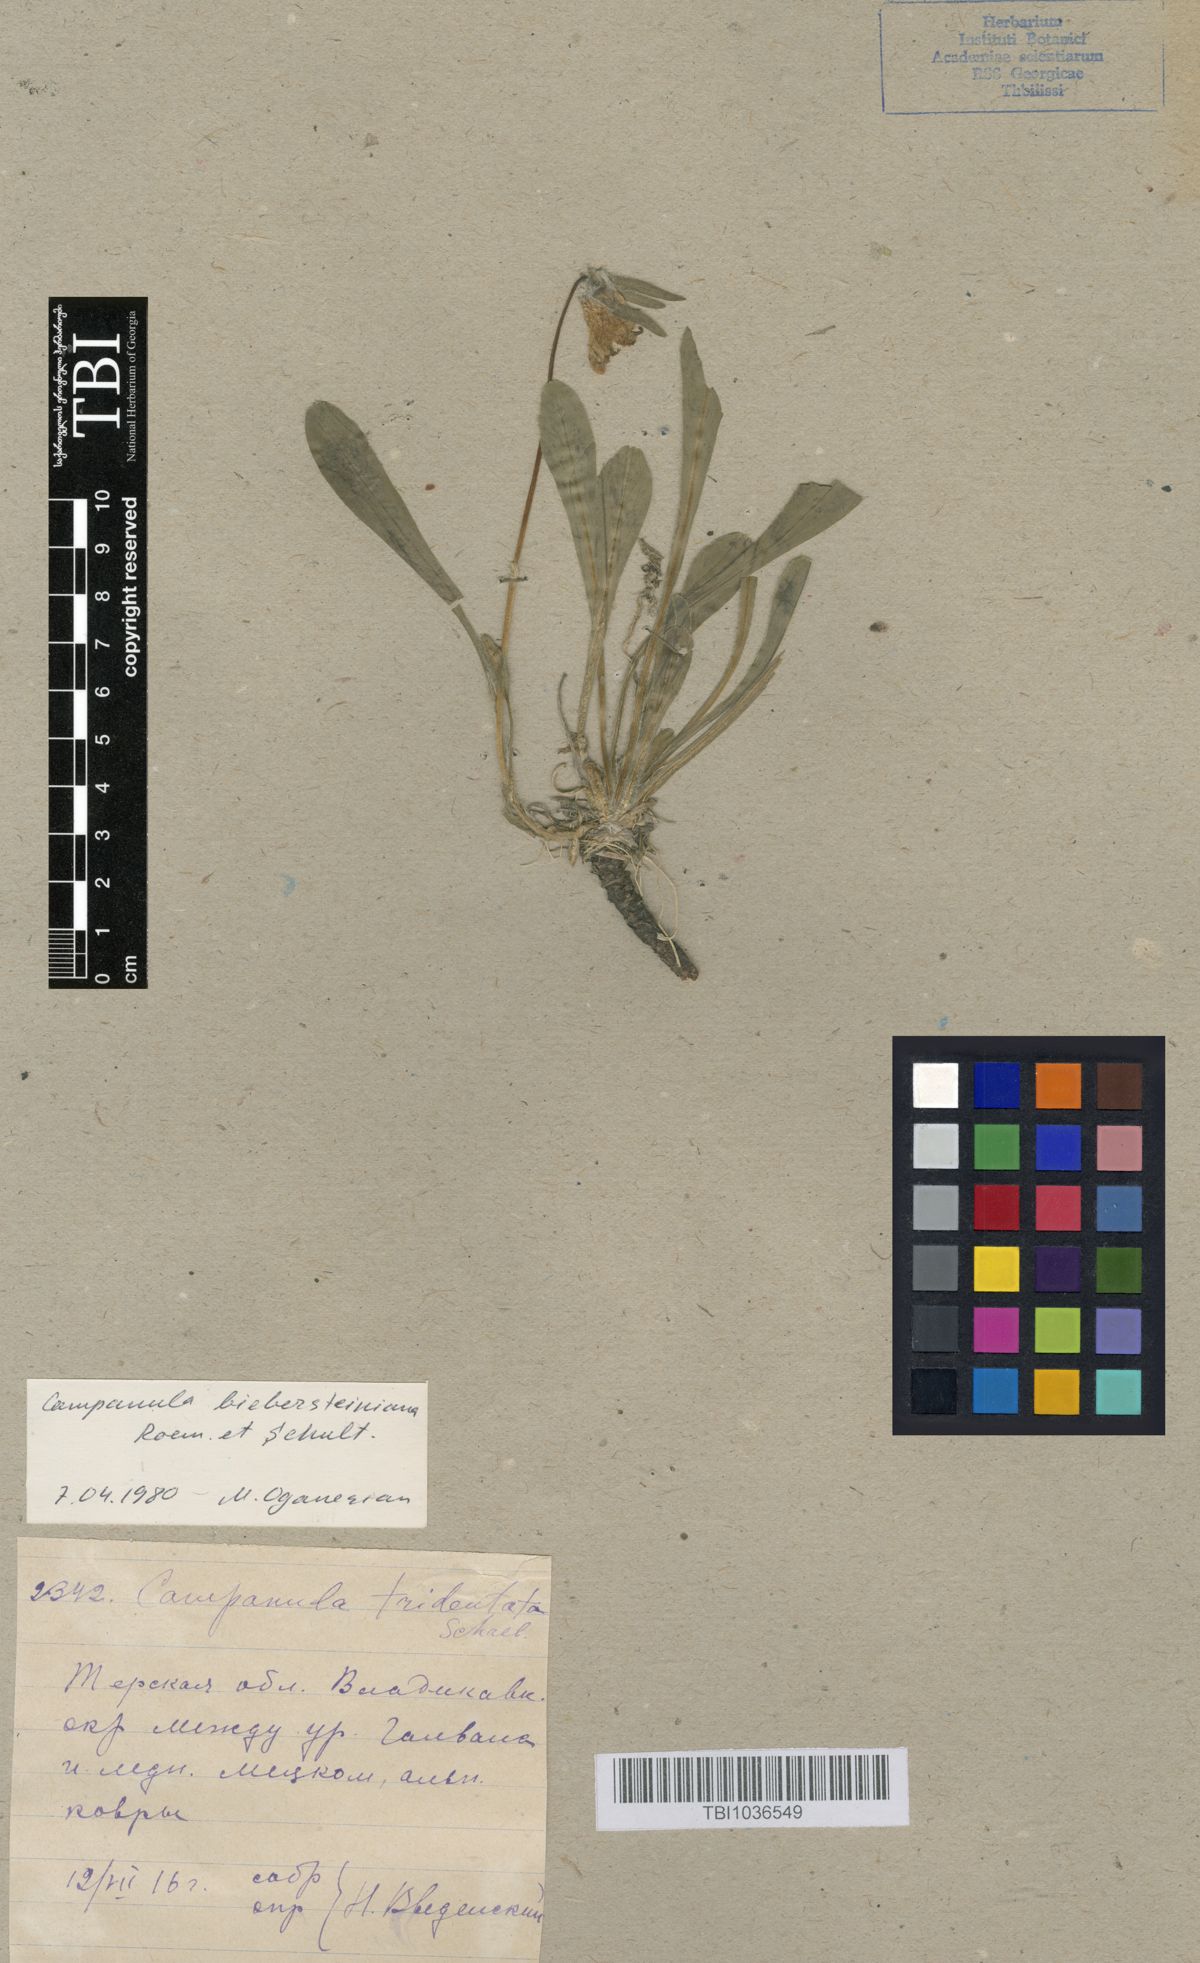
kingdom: Plantae
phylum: Tracheophyta
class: Magnoliopsida
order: Asterales
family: Campanulaceae
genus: Campanula
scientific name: Campanula tridentata
